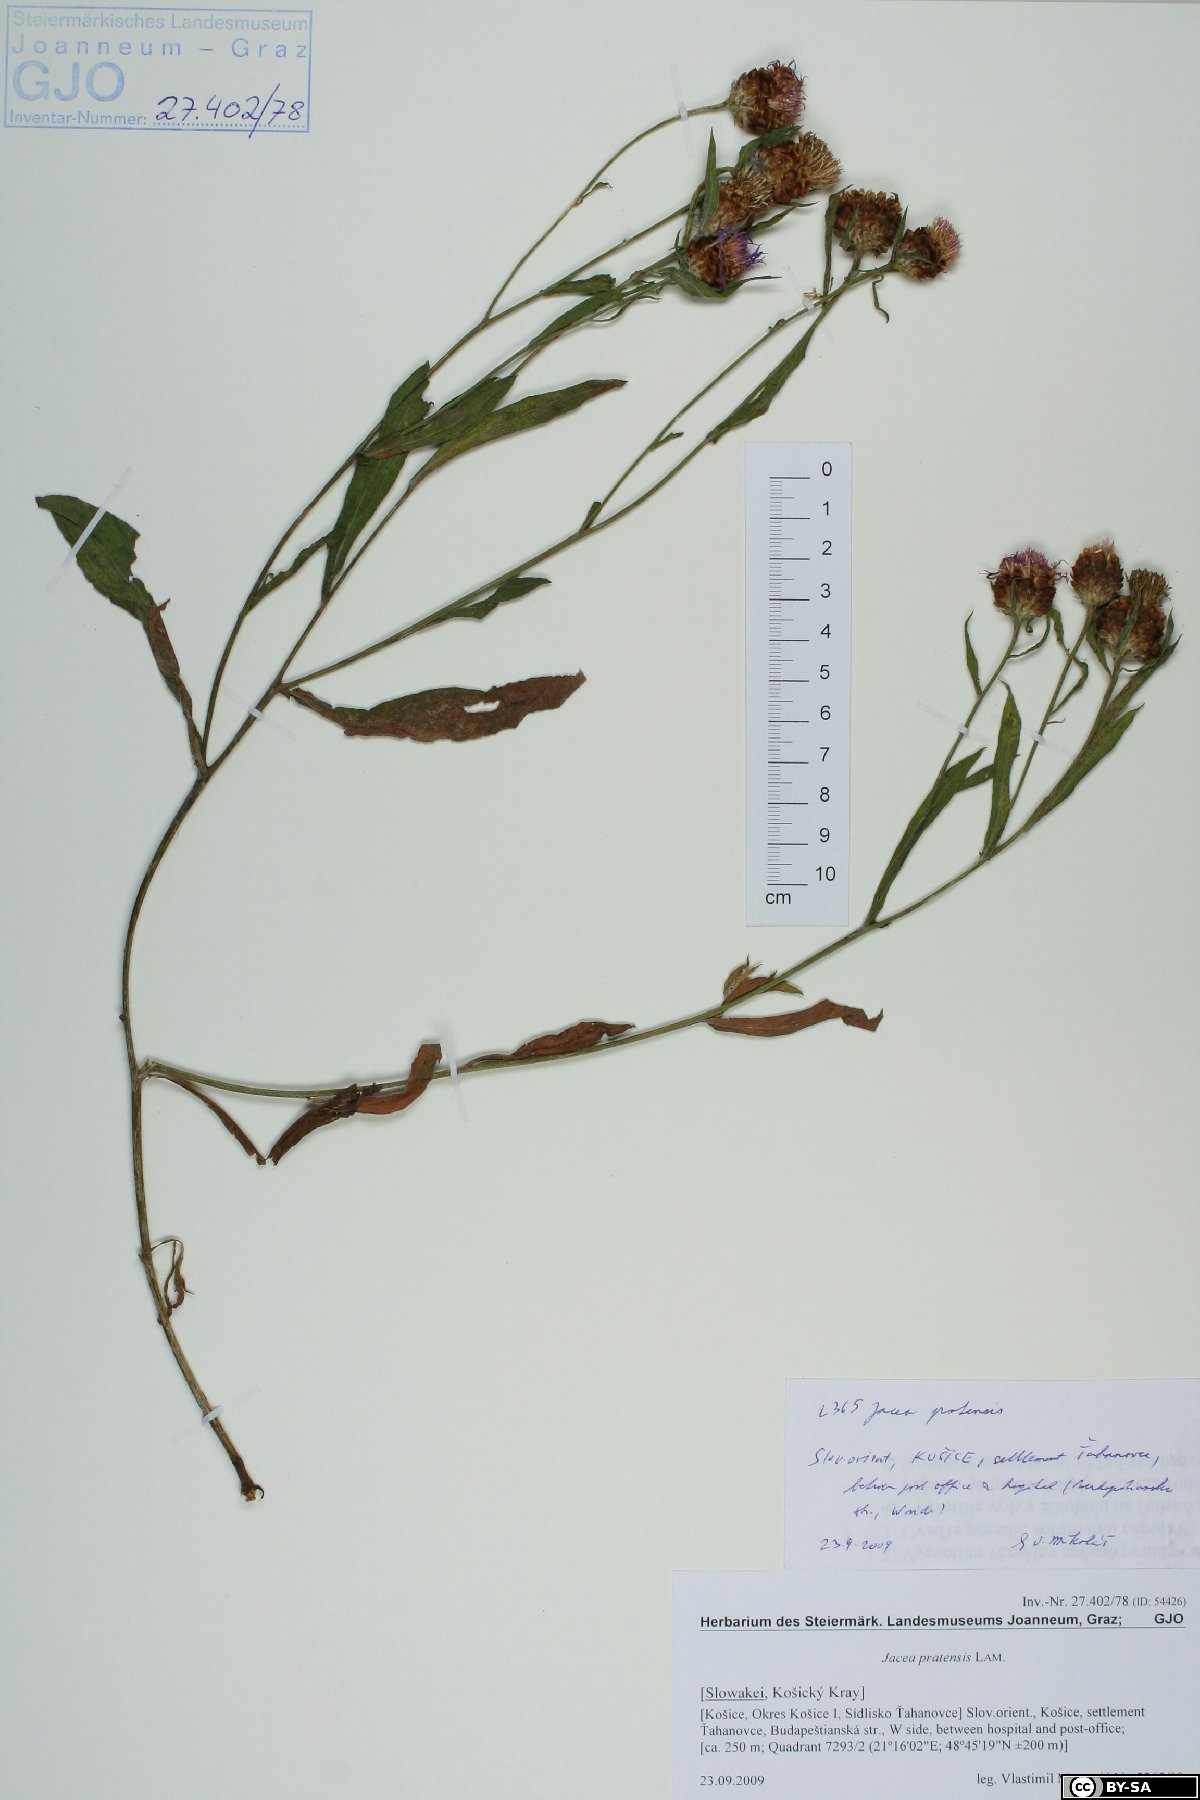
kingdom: Plantae
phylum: Tracheophyta
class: Magnoliopsida
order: Asterales
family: Asteraceae
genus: Centaurea
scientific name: Centaurea jacea
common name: Brown knapweed
